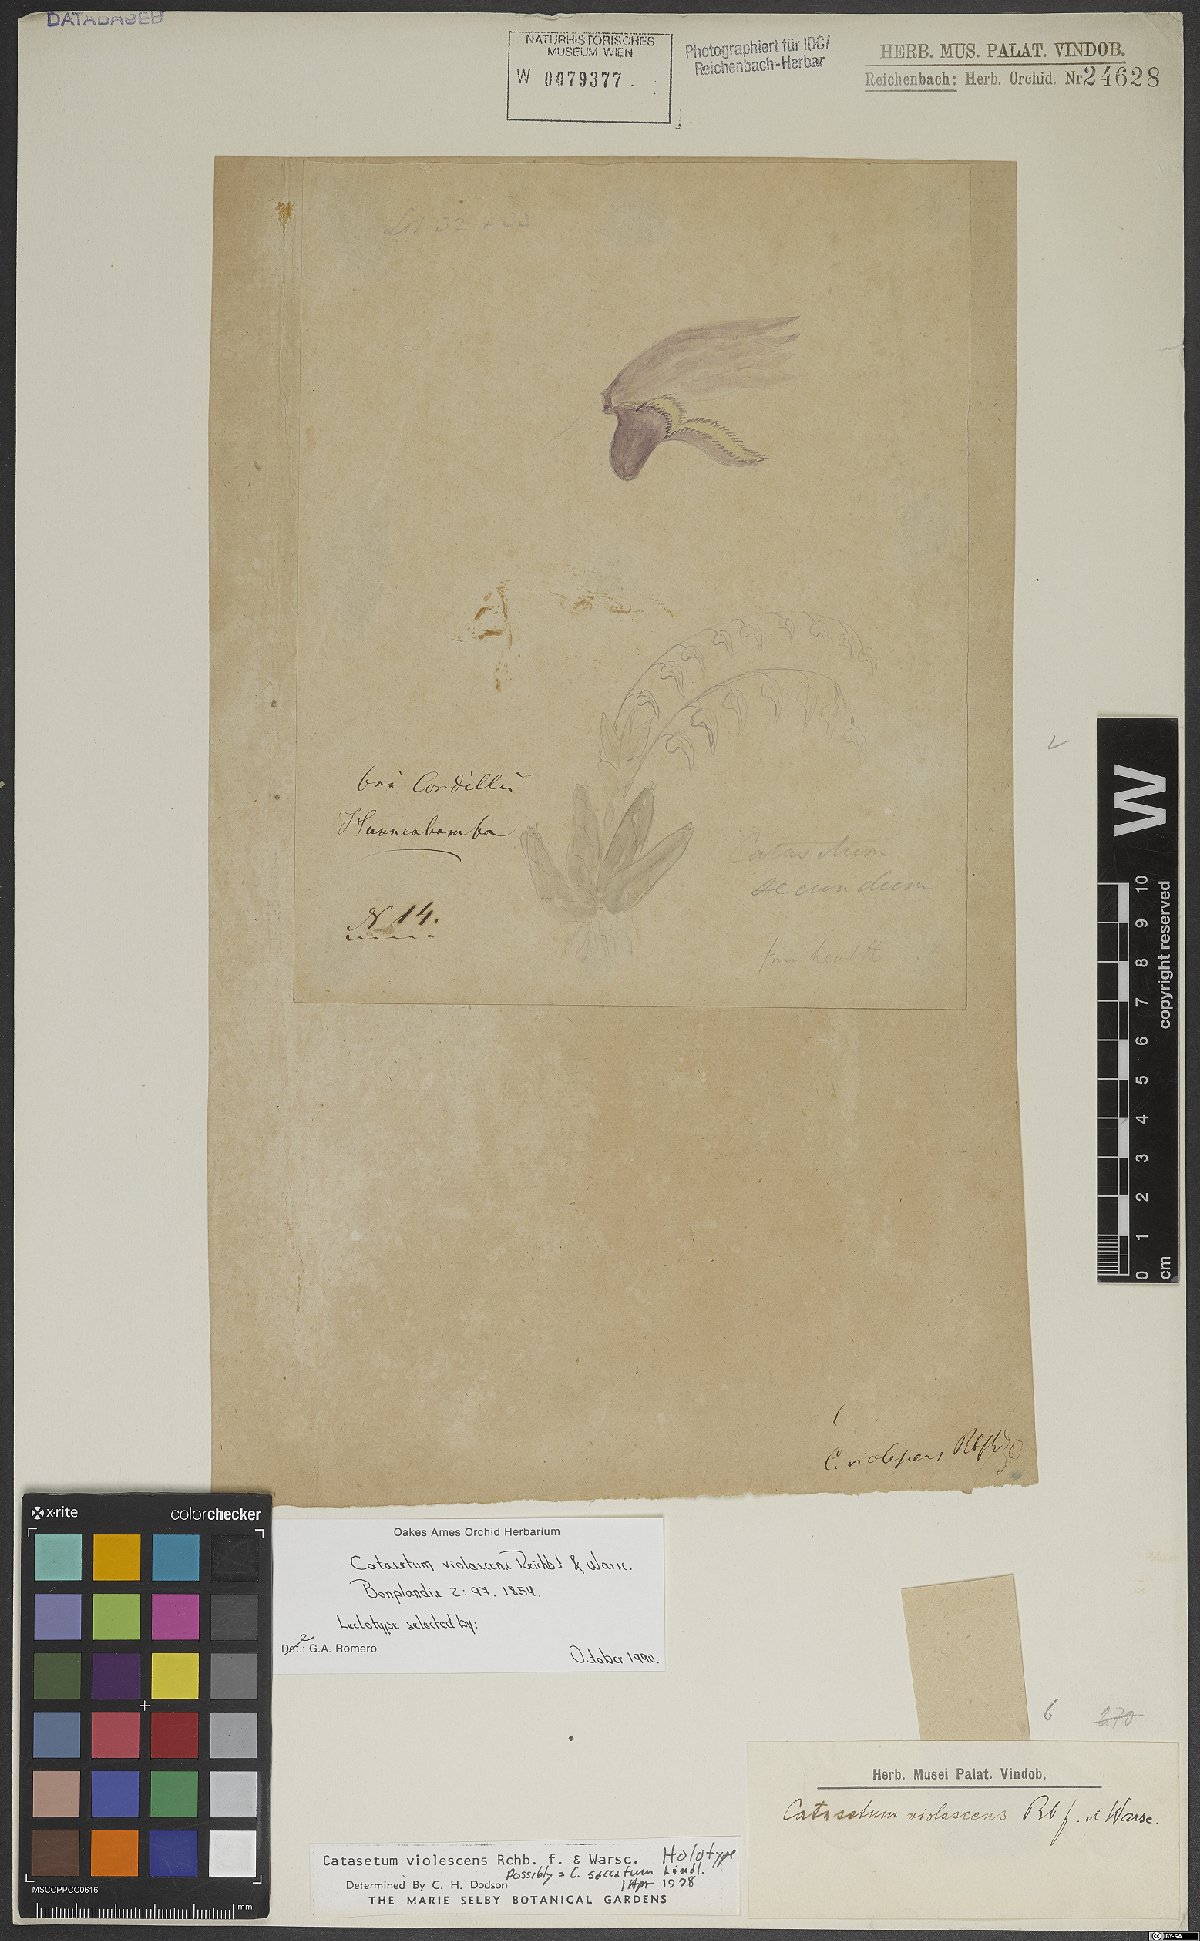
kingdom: Plantae
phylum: Tracheophyta
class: Liliopsida
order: Asparagales
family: Orchidaceae
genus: Catasetum
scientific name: Catasetum secundum
